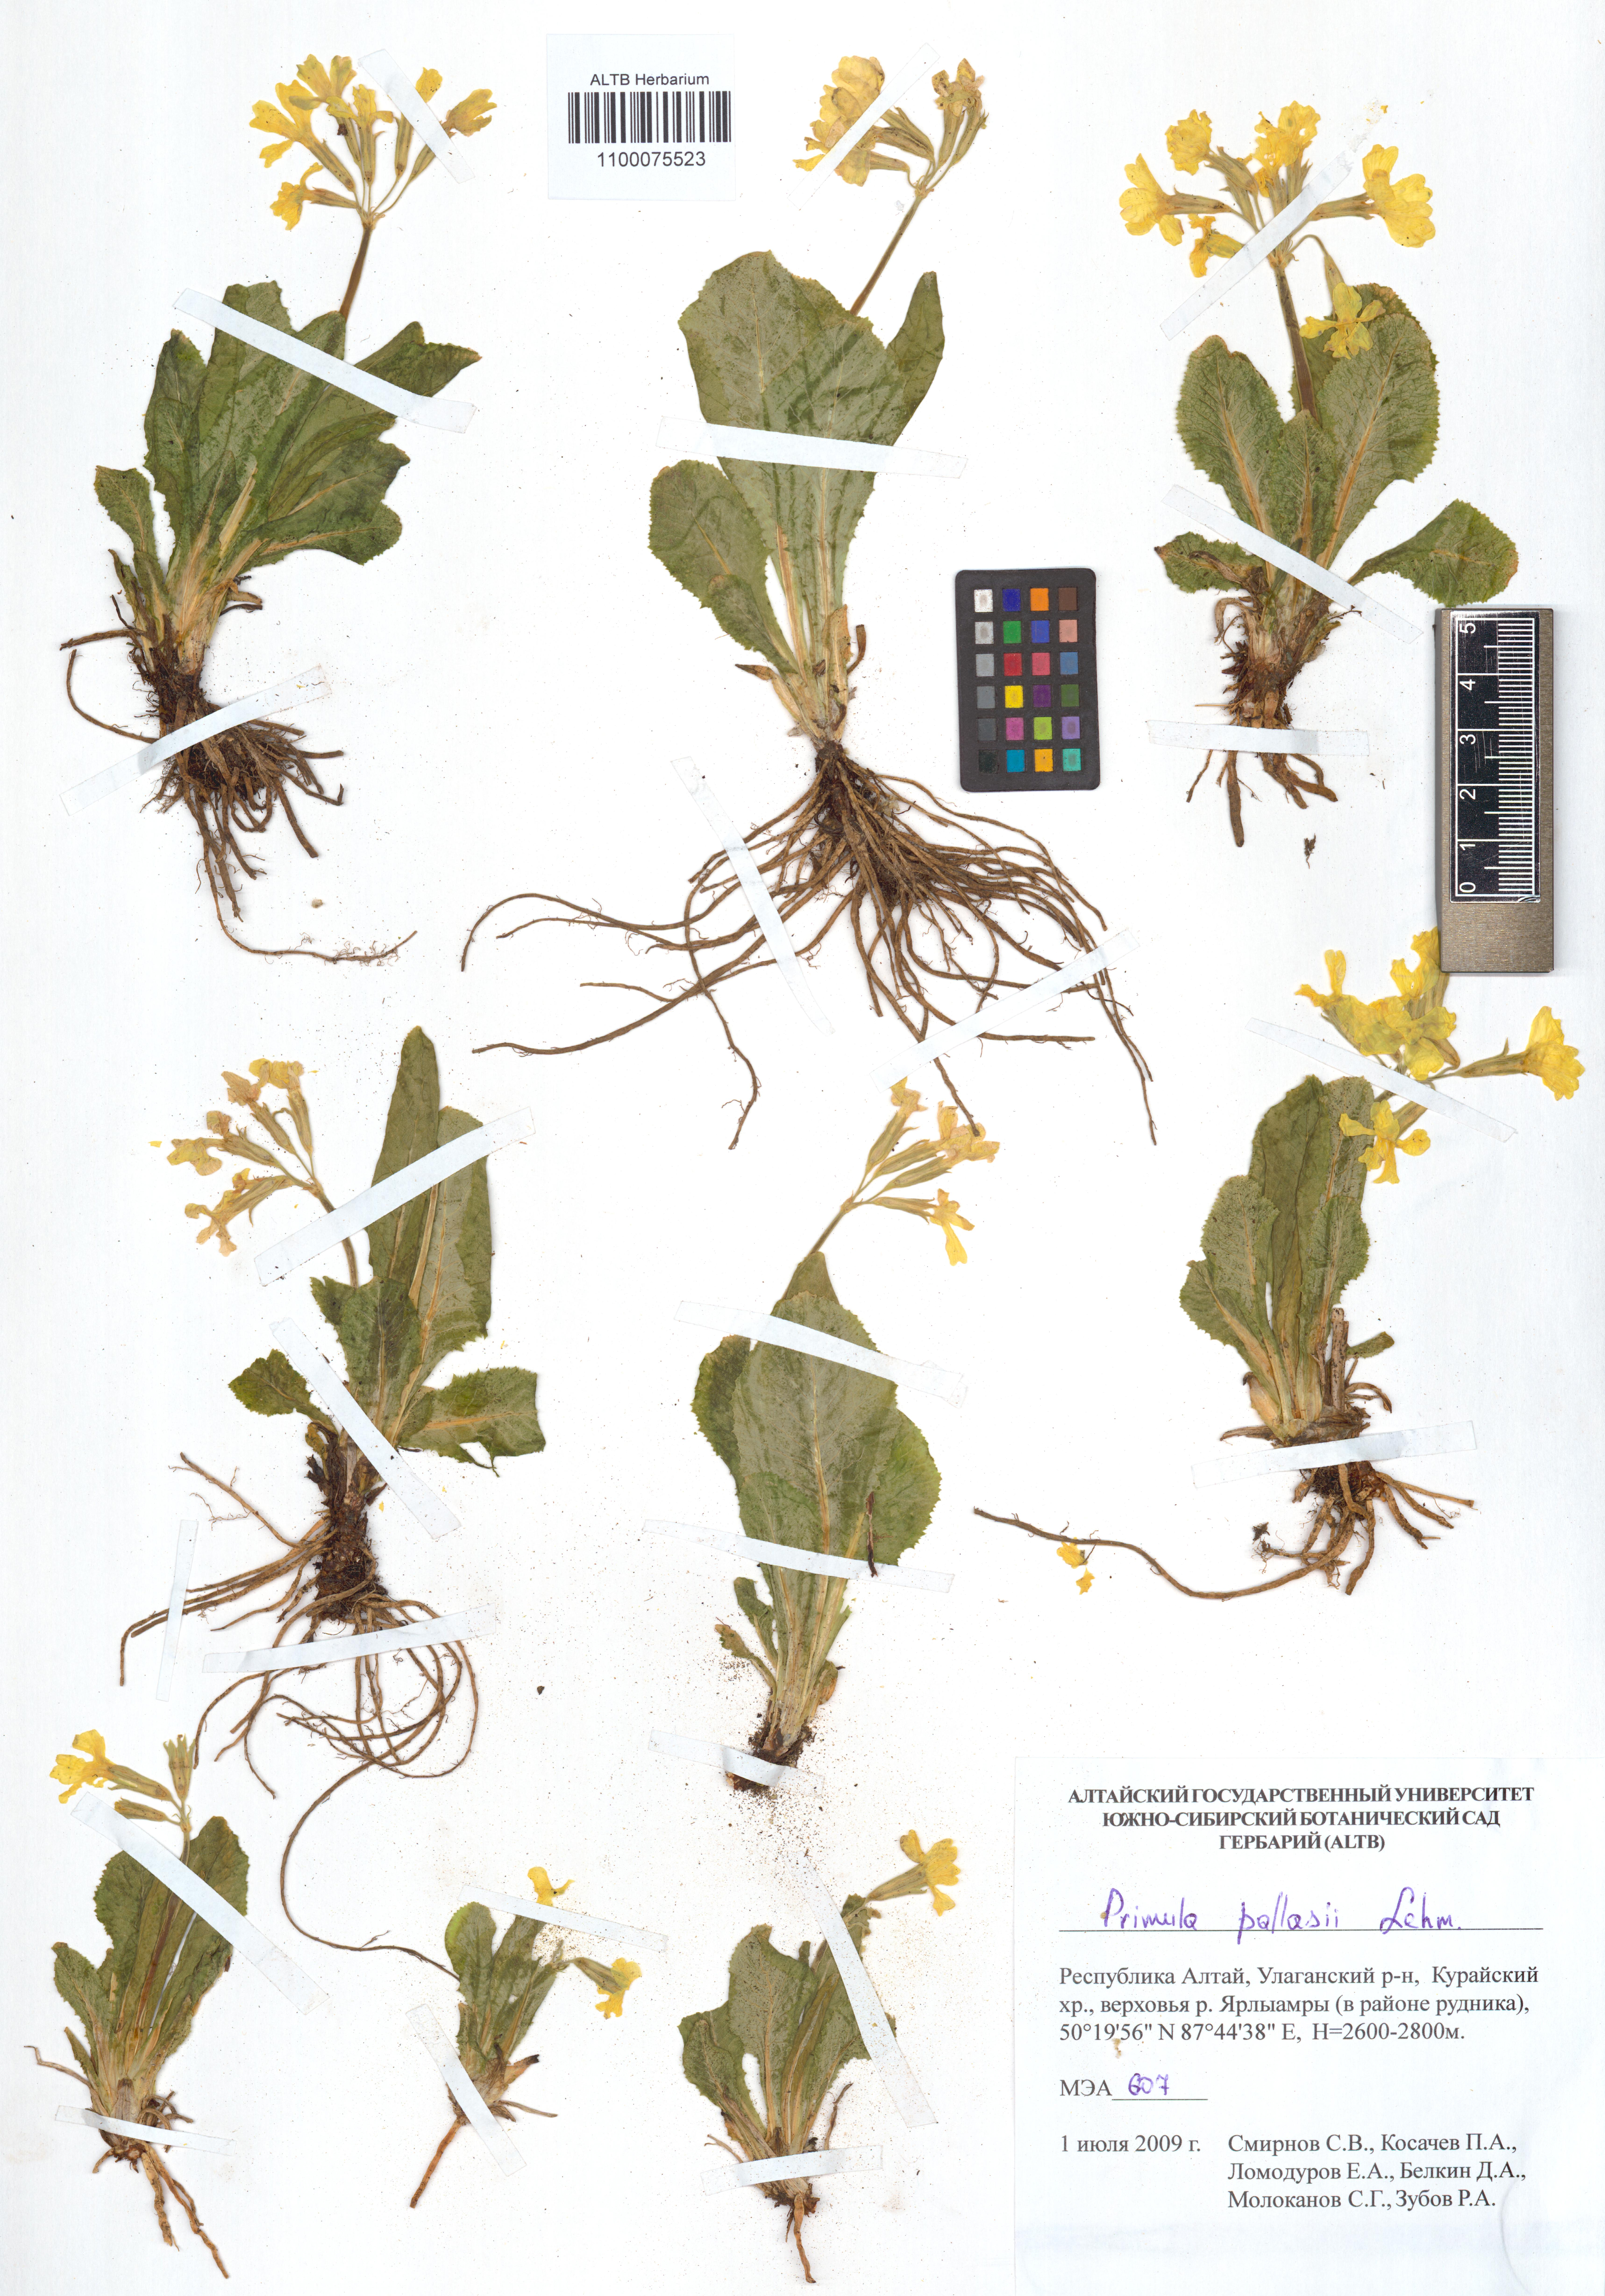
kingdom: Plantae
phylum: Tracheophyta
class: Magnoliopsida
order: Ericales
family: Primulaceae
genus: Primula
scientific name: Primula elatior
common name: Oxlip
